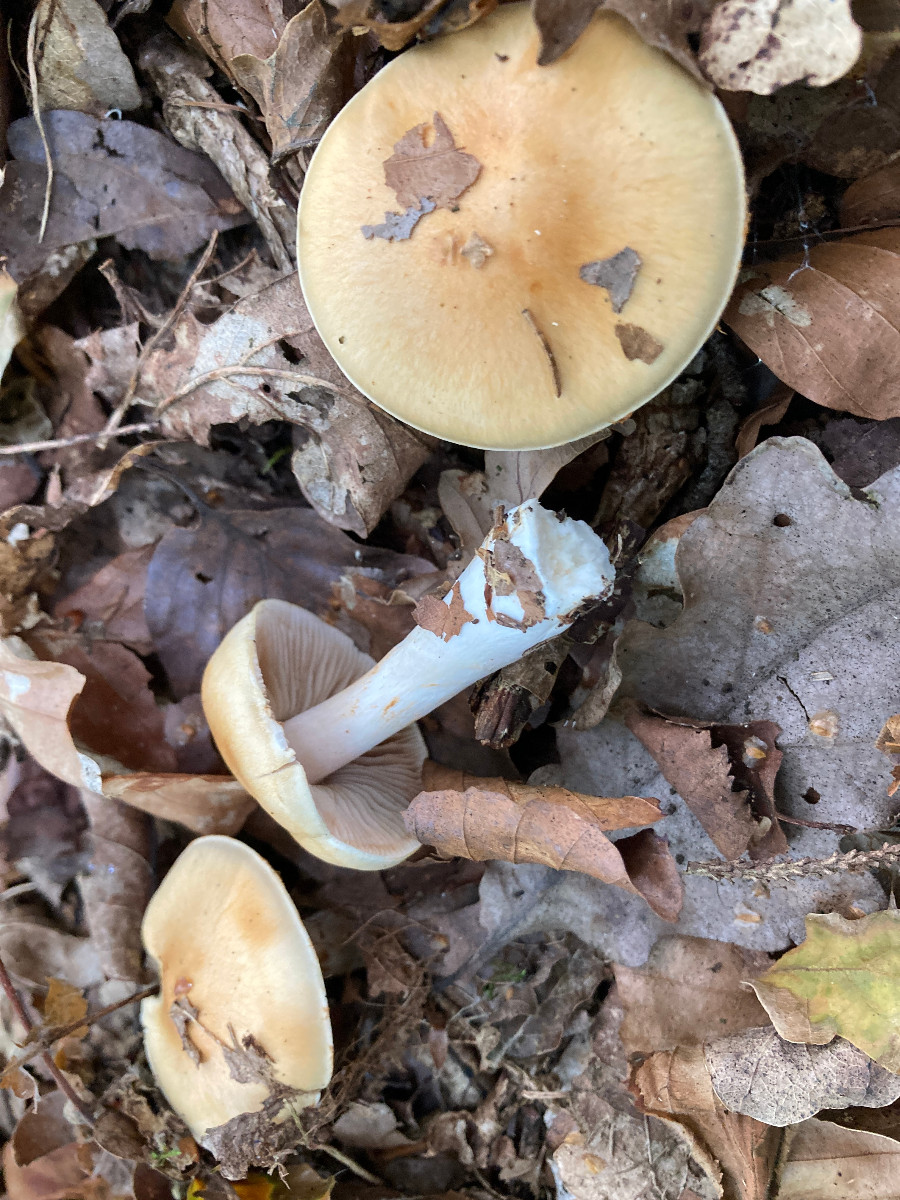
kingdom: Fungi
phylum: Basidiomycota
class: Agaricomycetes
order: Agaricales
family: Cortinariaceae
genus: Cortinarius
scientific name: Cortinarius delibutus
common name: gul slørhat
